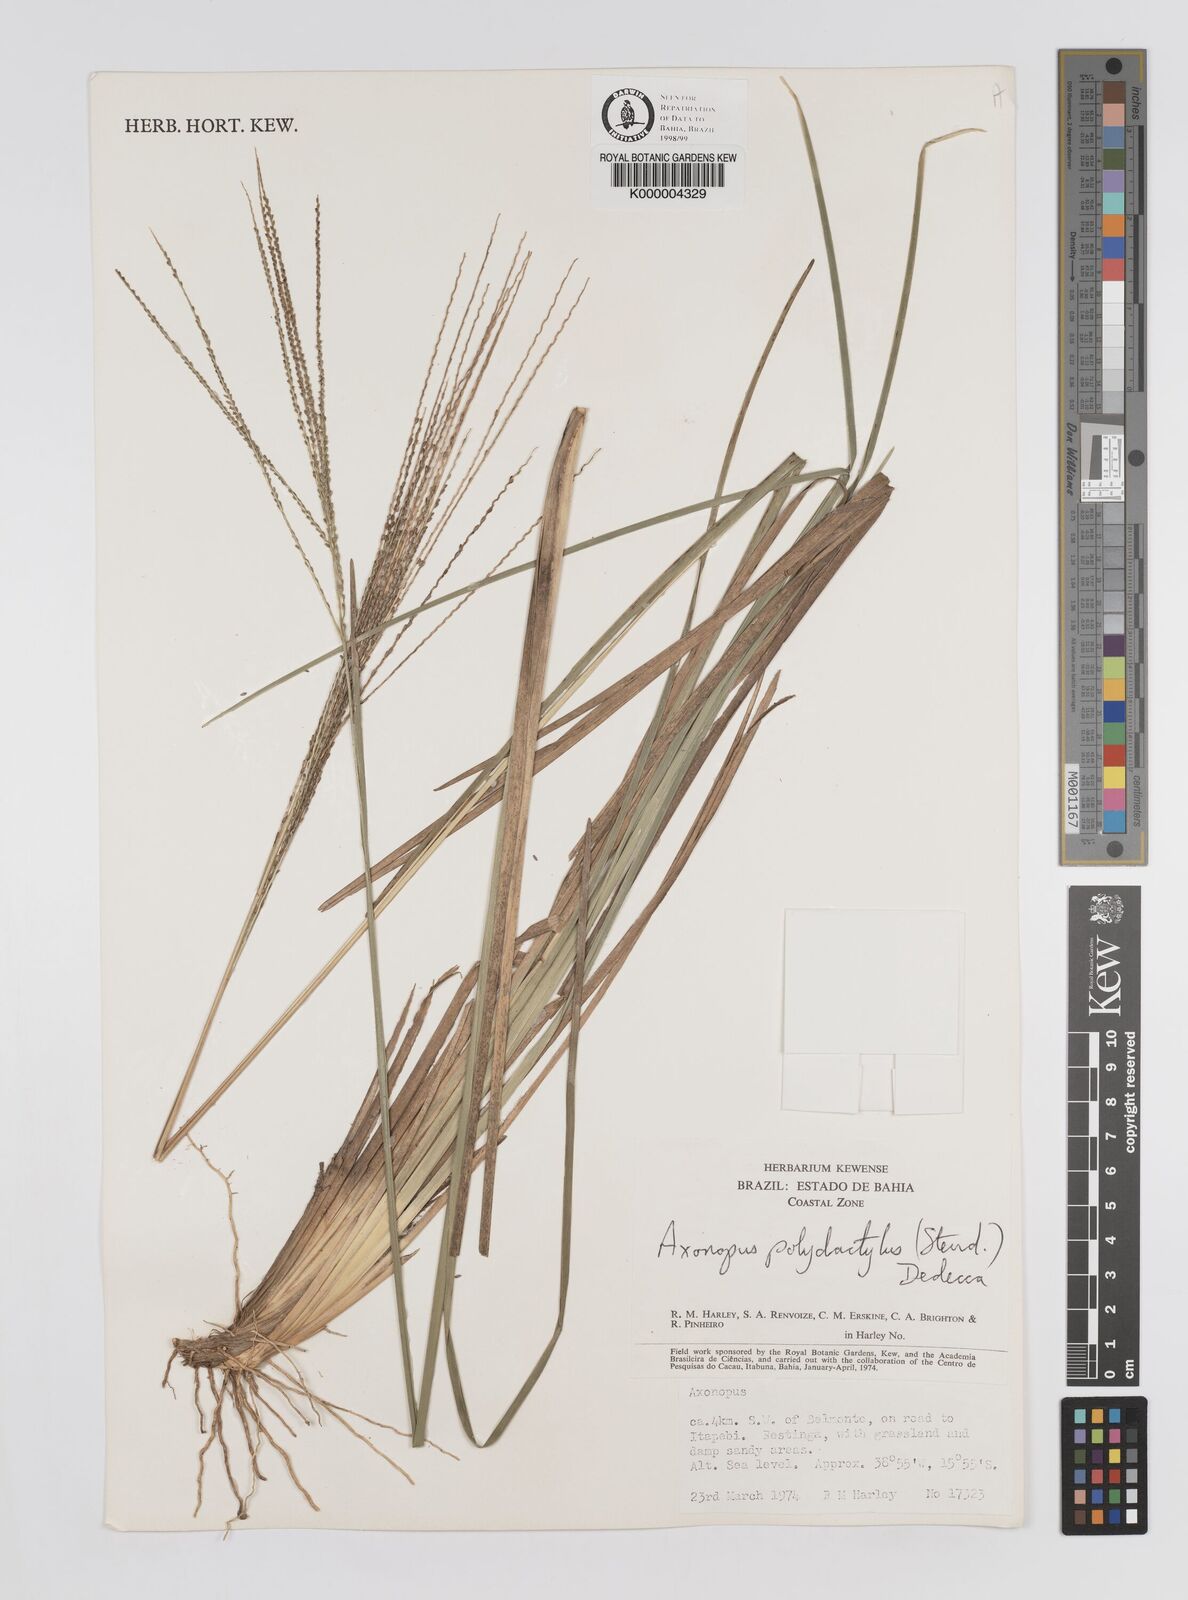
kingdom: Plantae
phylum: Tracheophyta
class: Liliopsida
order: Poales
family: Poaceae
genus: Axonopus
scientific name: Axonopus polydactylus
